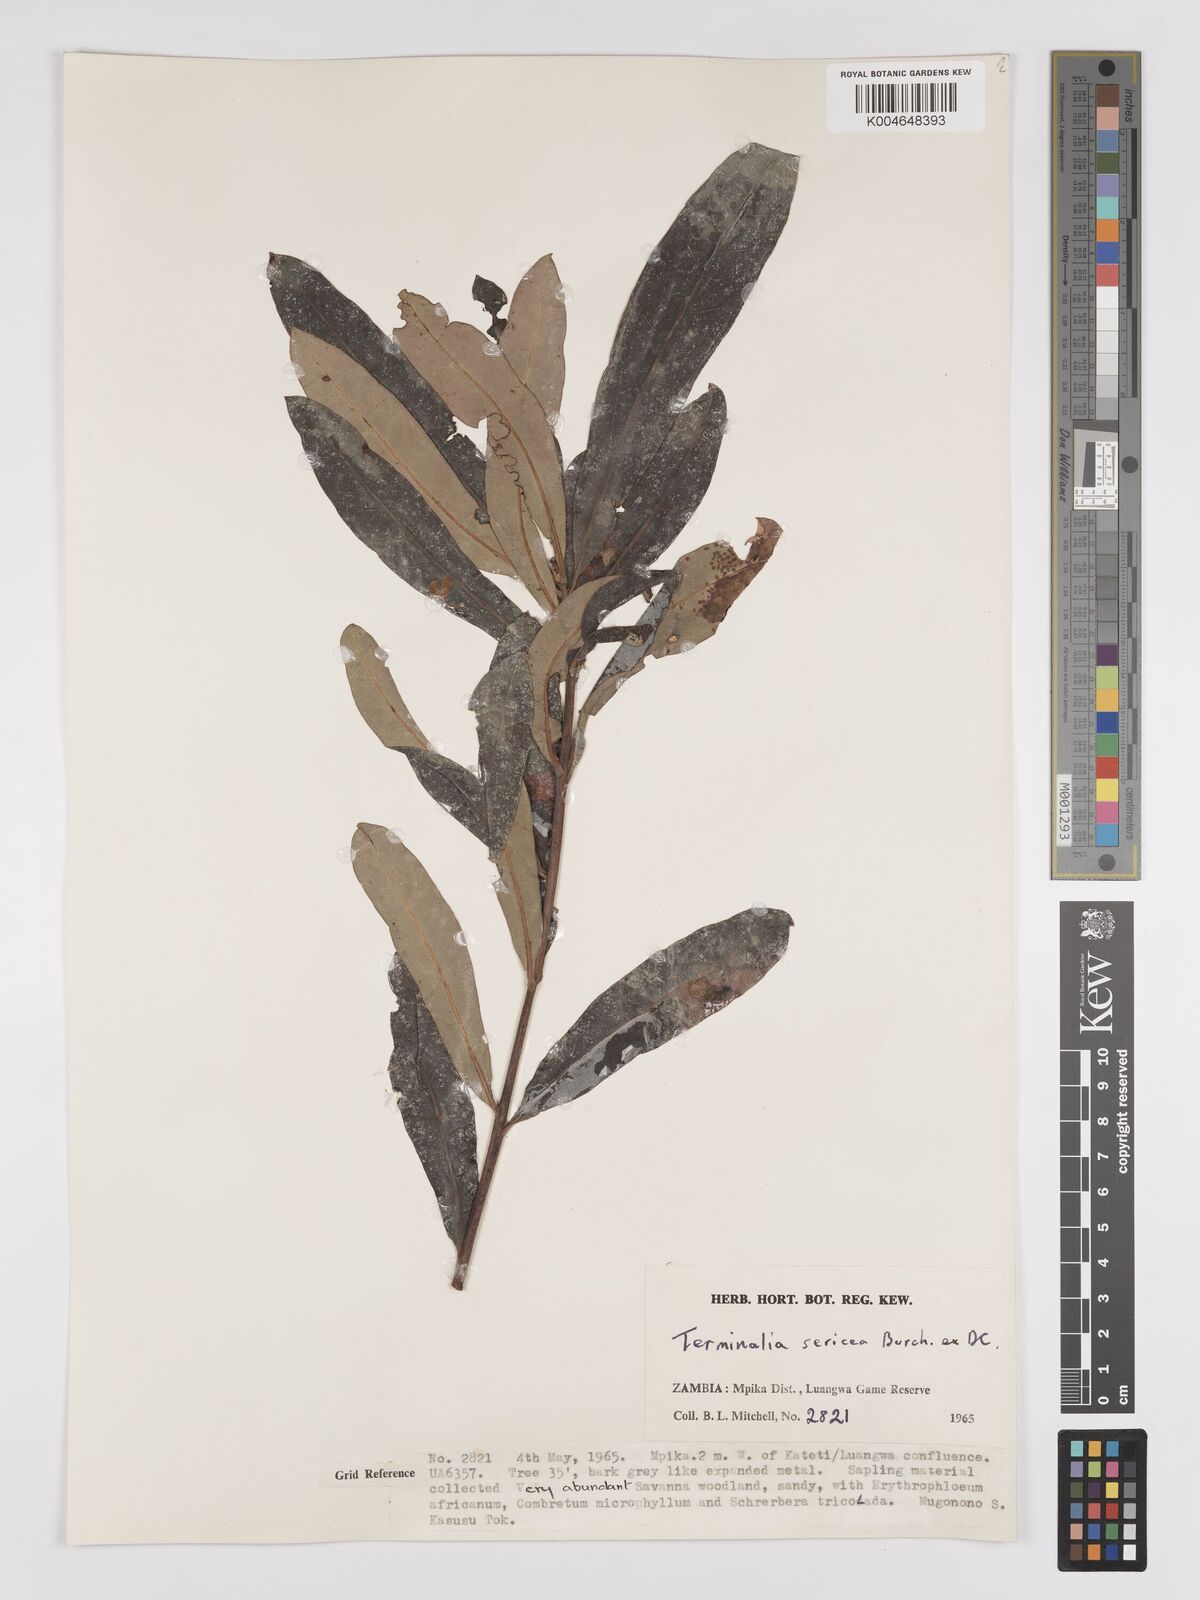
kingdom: Plantae
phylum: Tracheophyta
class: Magnoliopsida
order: Myrtales
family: Combretaceae
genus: Terminalia
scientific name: Terminalia
